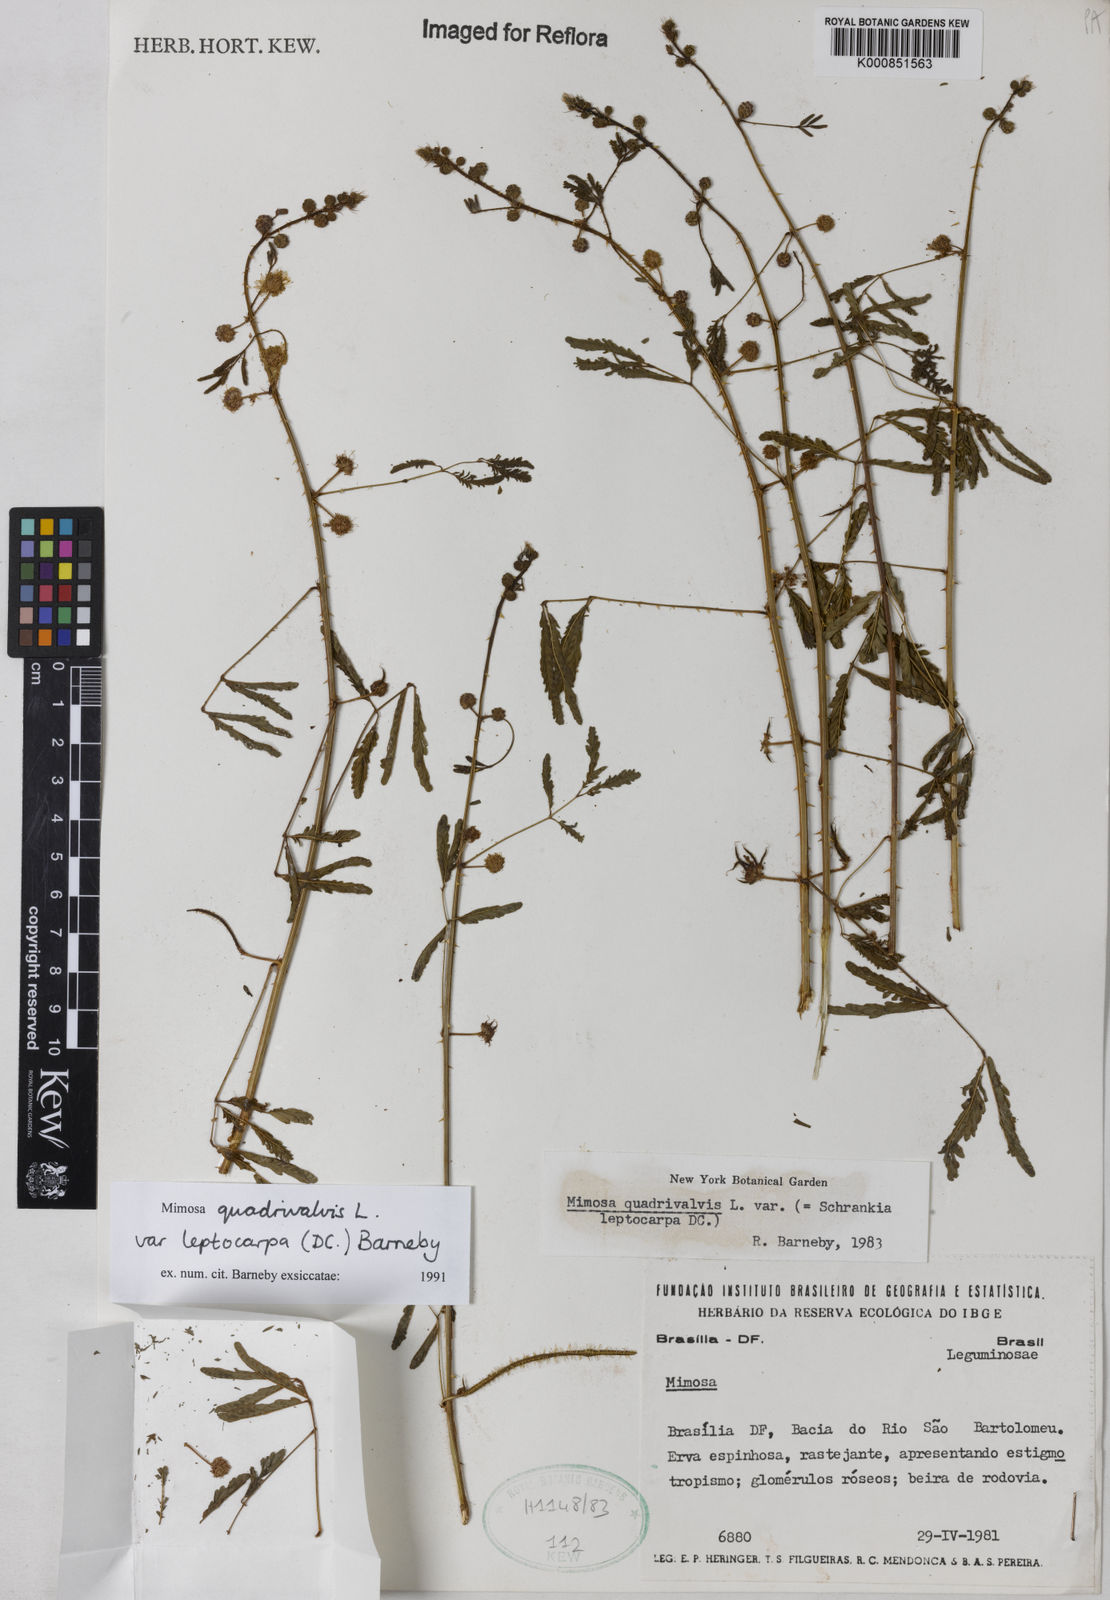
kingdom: Plantae
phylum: Tracheophyta
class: Magnoliopsida
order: Fabales
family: Fabaceae
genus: Mimosa
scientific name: Mimosa candollei
